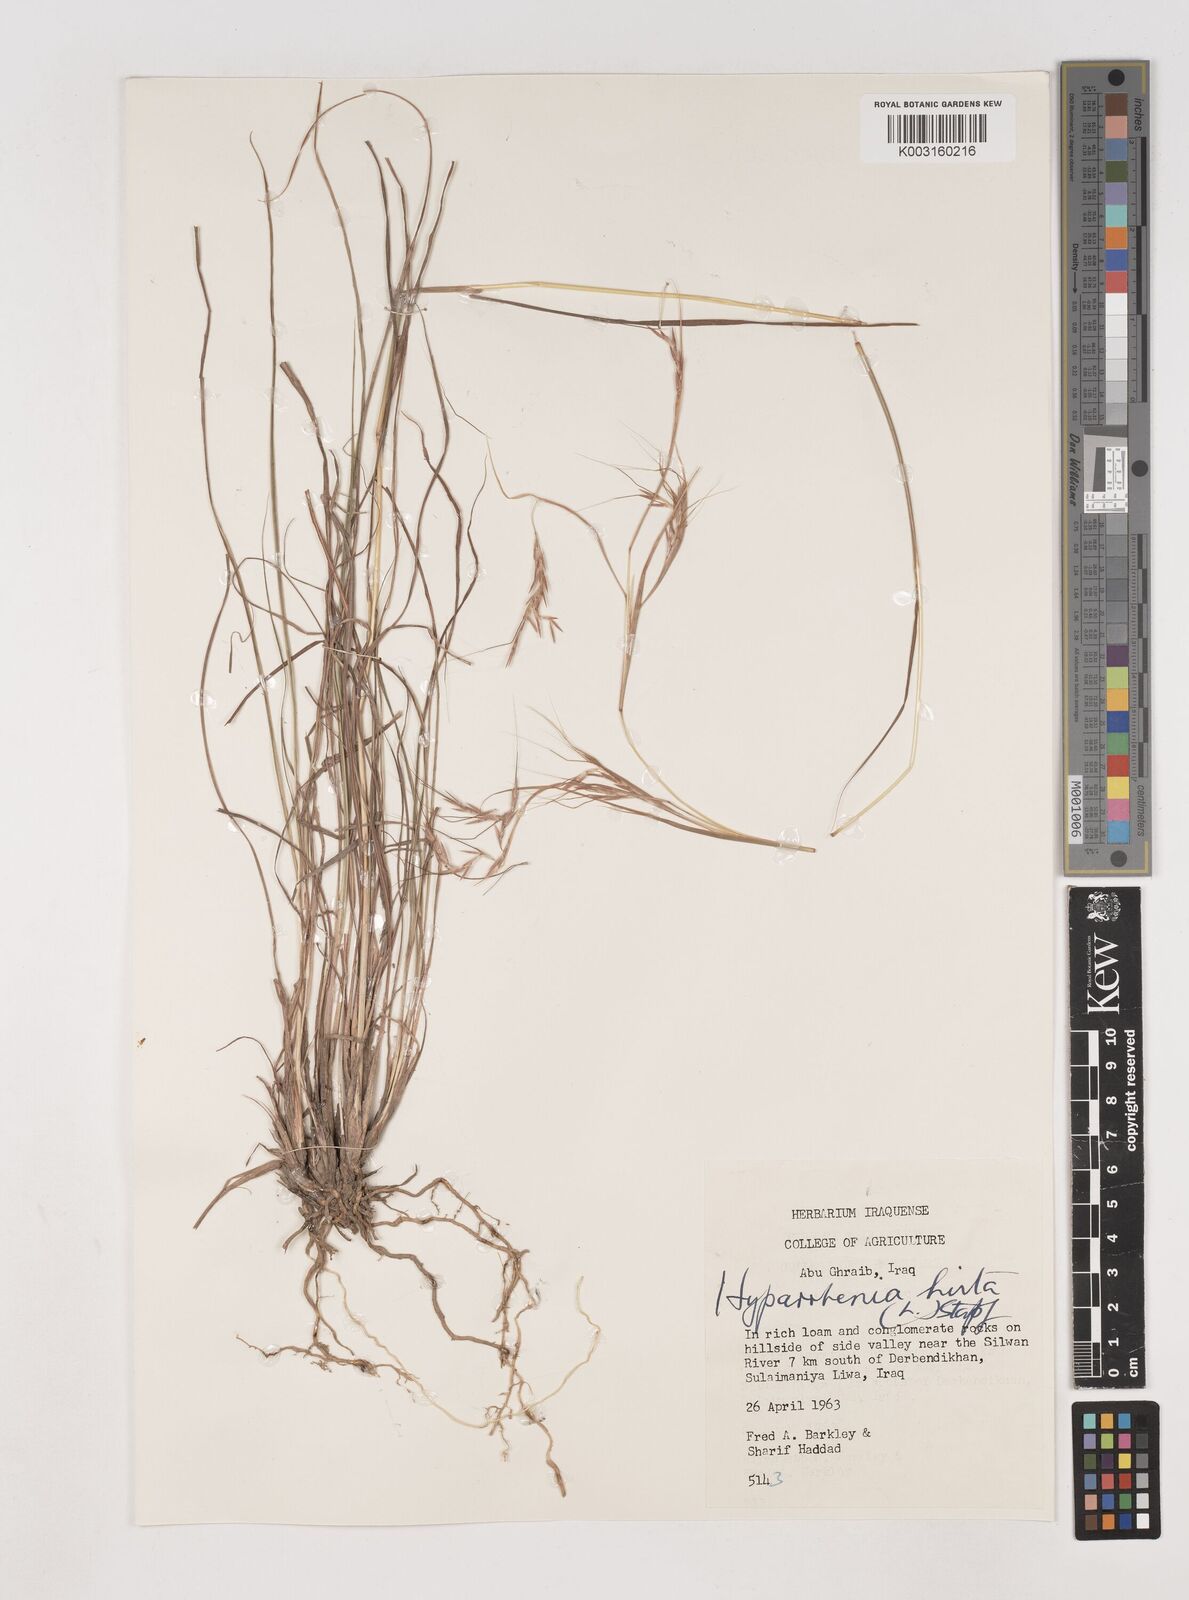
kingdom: Plantae
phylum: Tracheophyta
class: Liliopsida
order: Poales
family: Poaceae
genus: Hyparrhenia
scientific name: Hyparrhenia hirta
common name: Thatching grass
